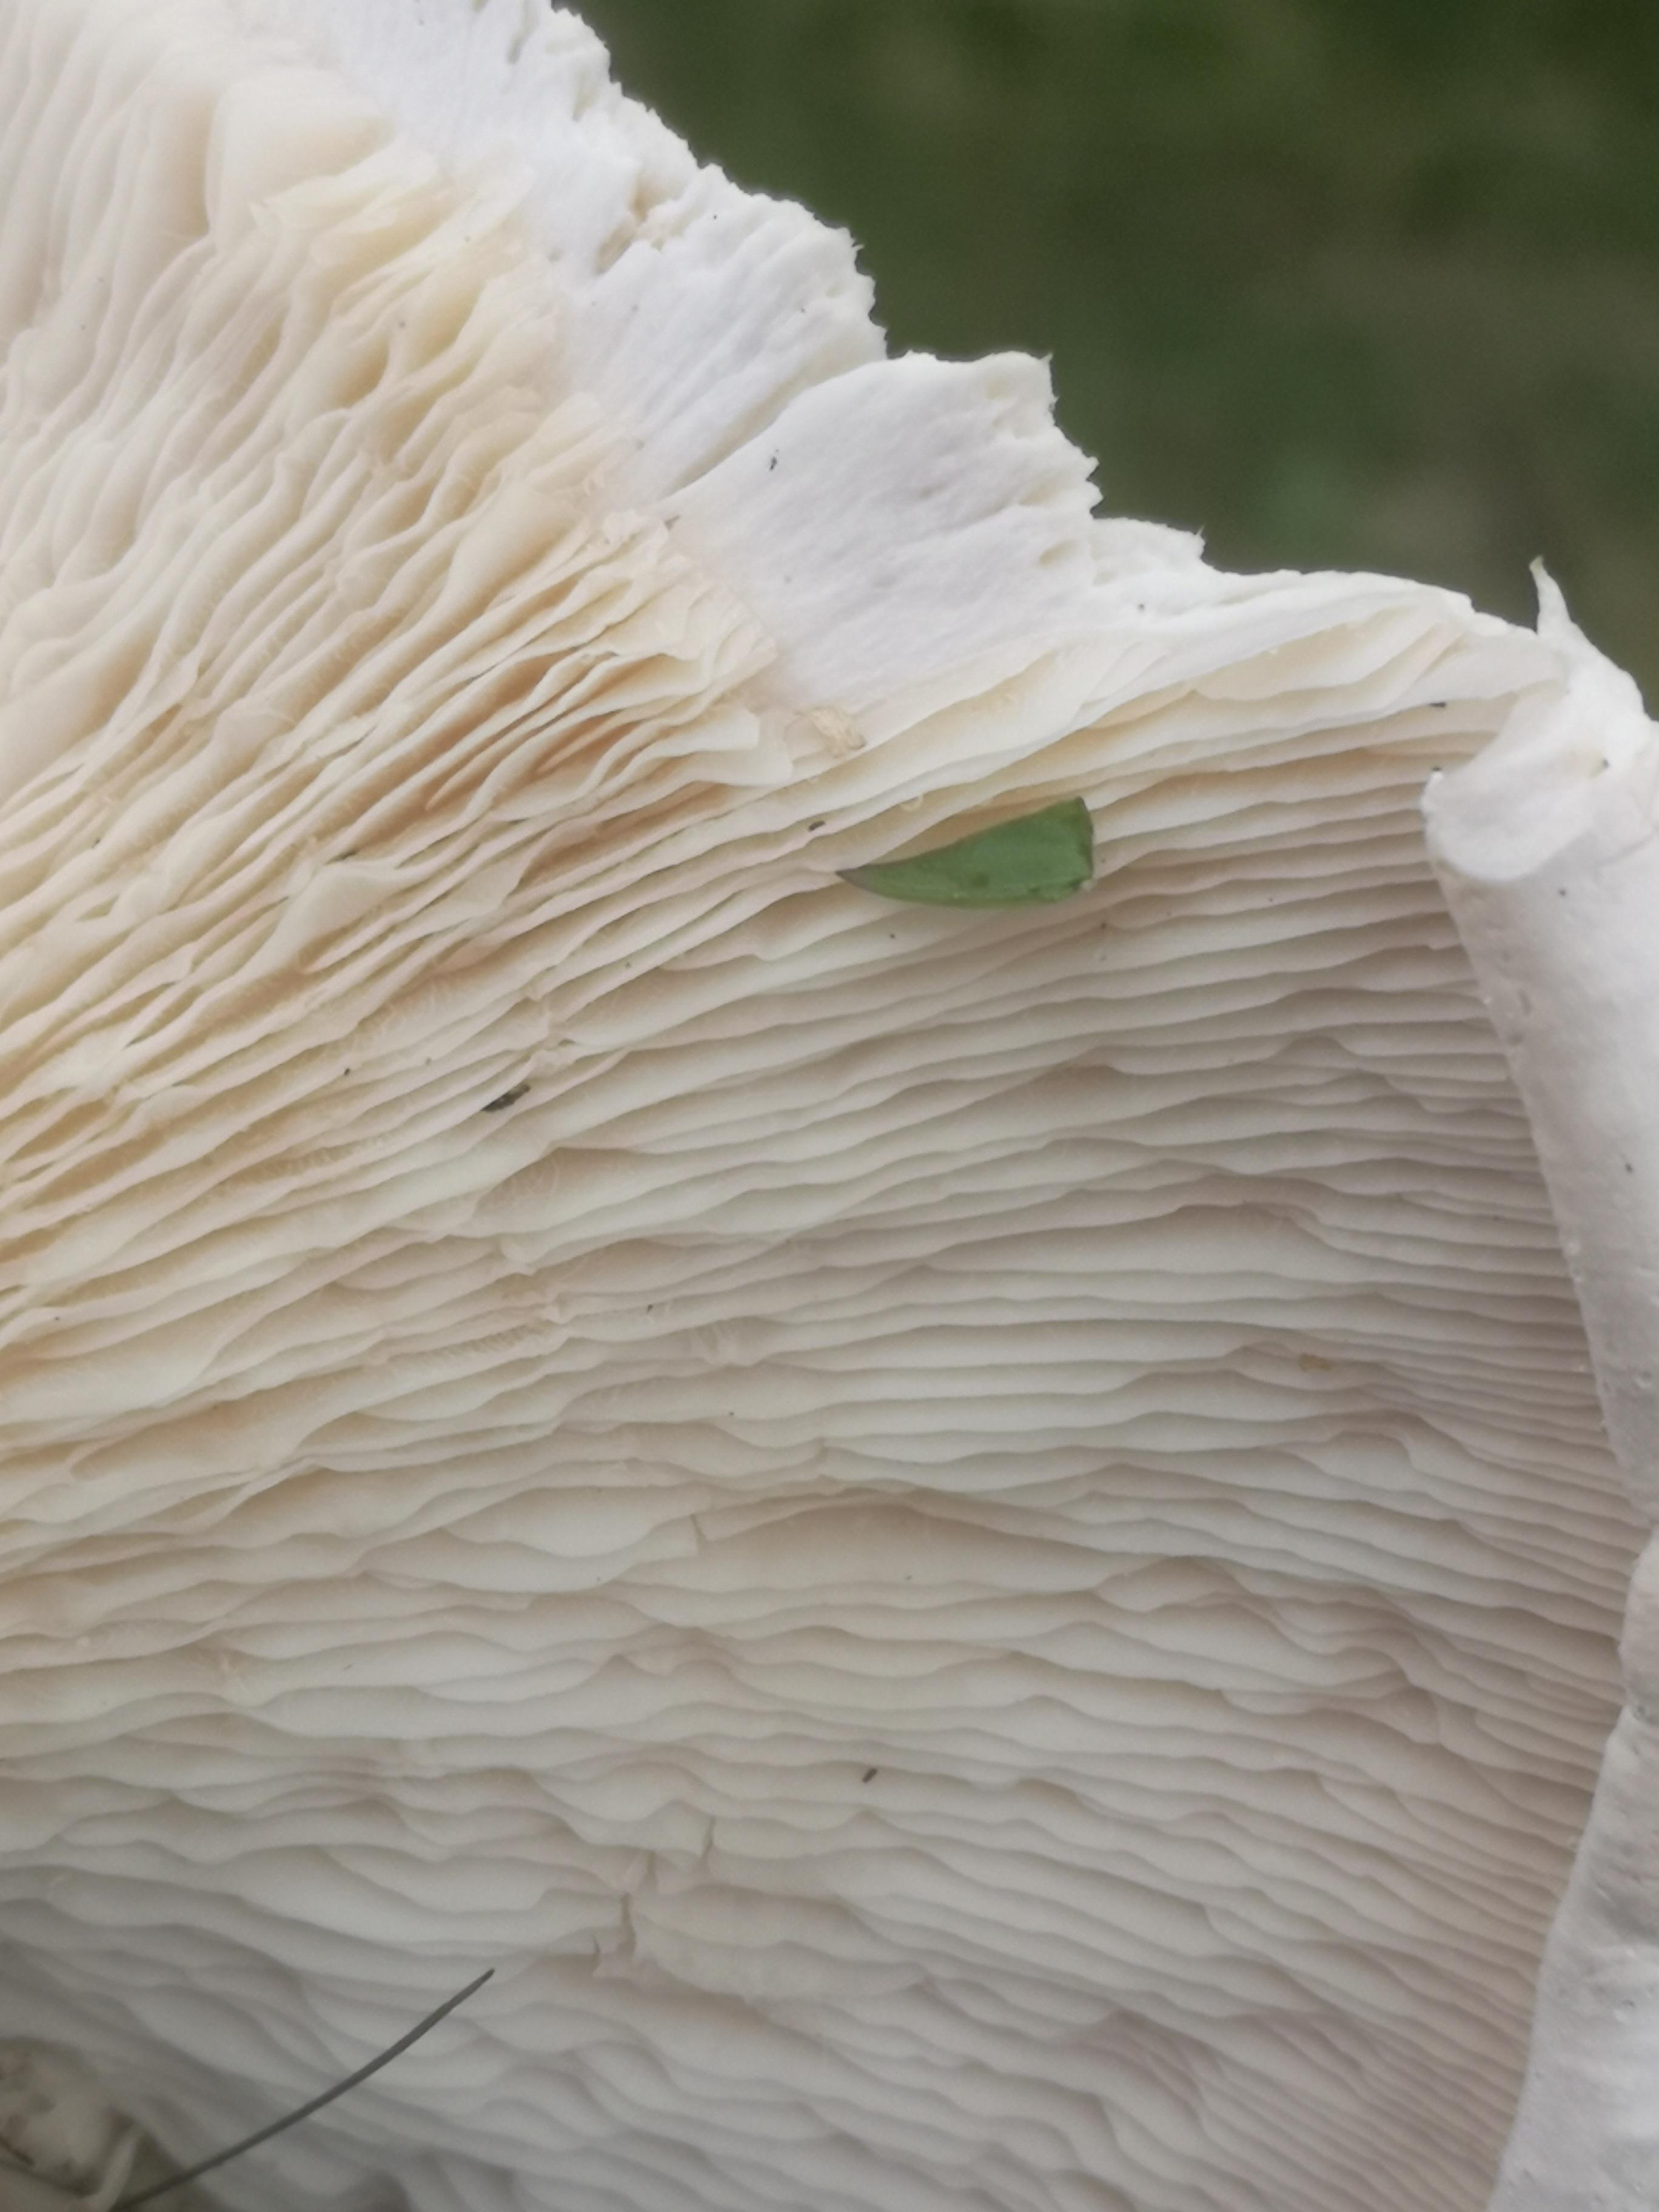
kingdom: Fungi
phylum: Basidiomycota
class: Agaricomycetes
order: Agaricales
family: Tricholomataceae
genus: Aspropaxillus
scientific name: Aspropaxillus giganteus
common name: kæmpe-tragtridderhat
